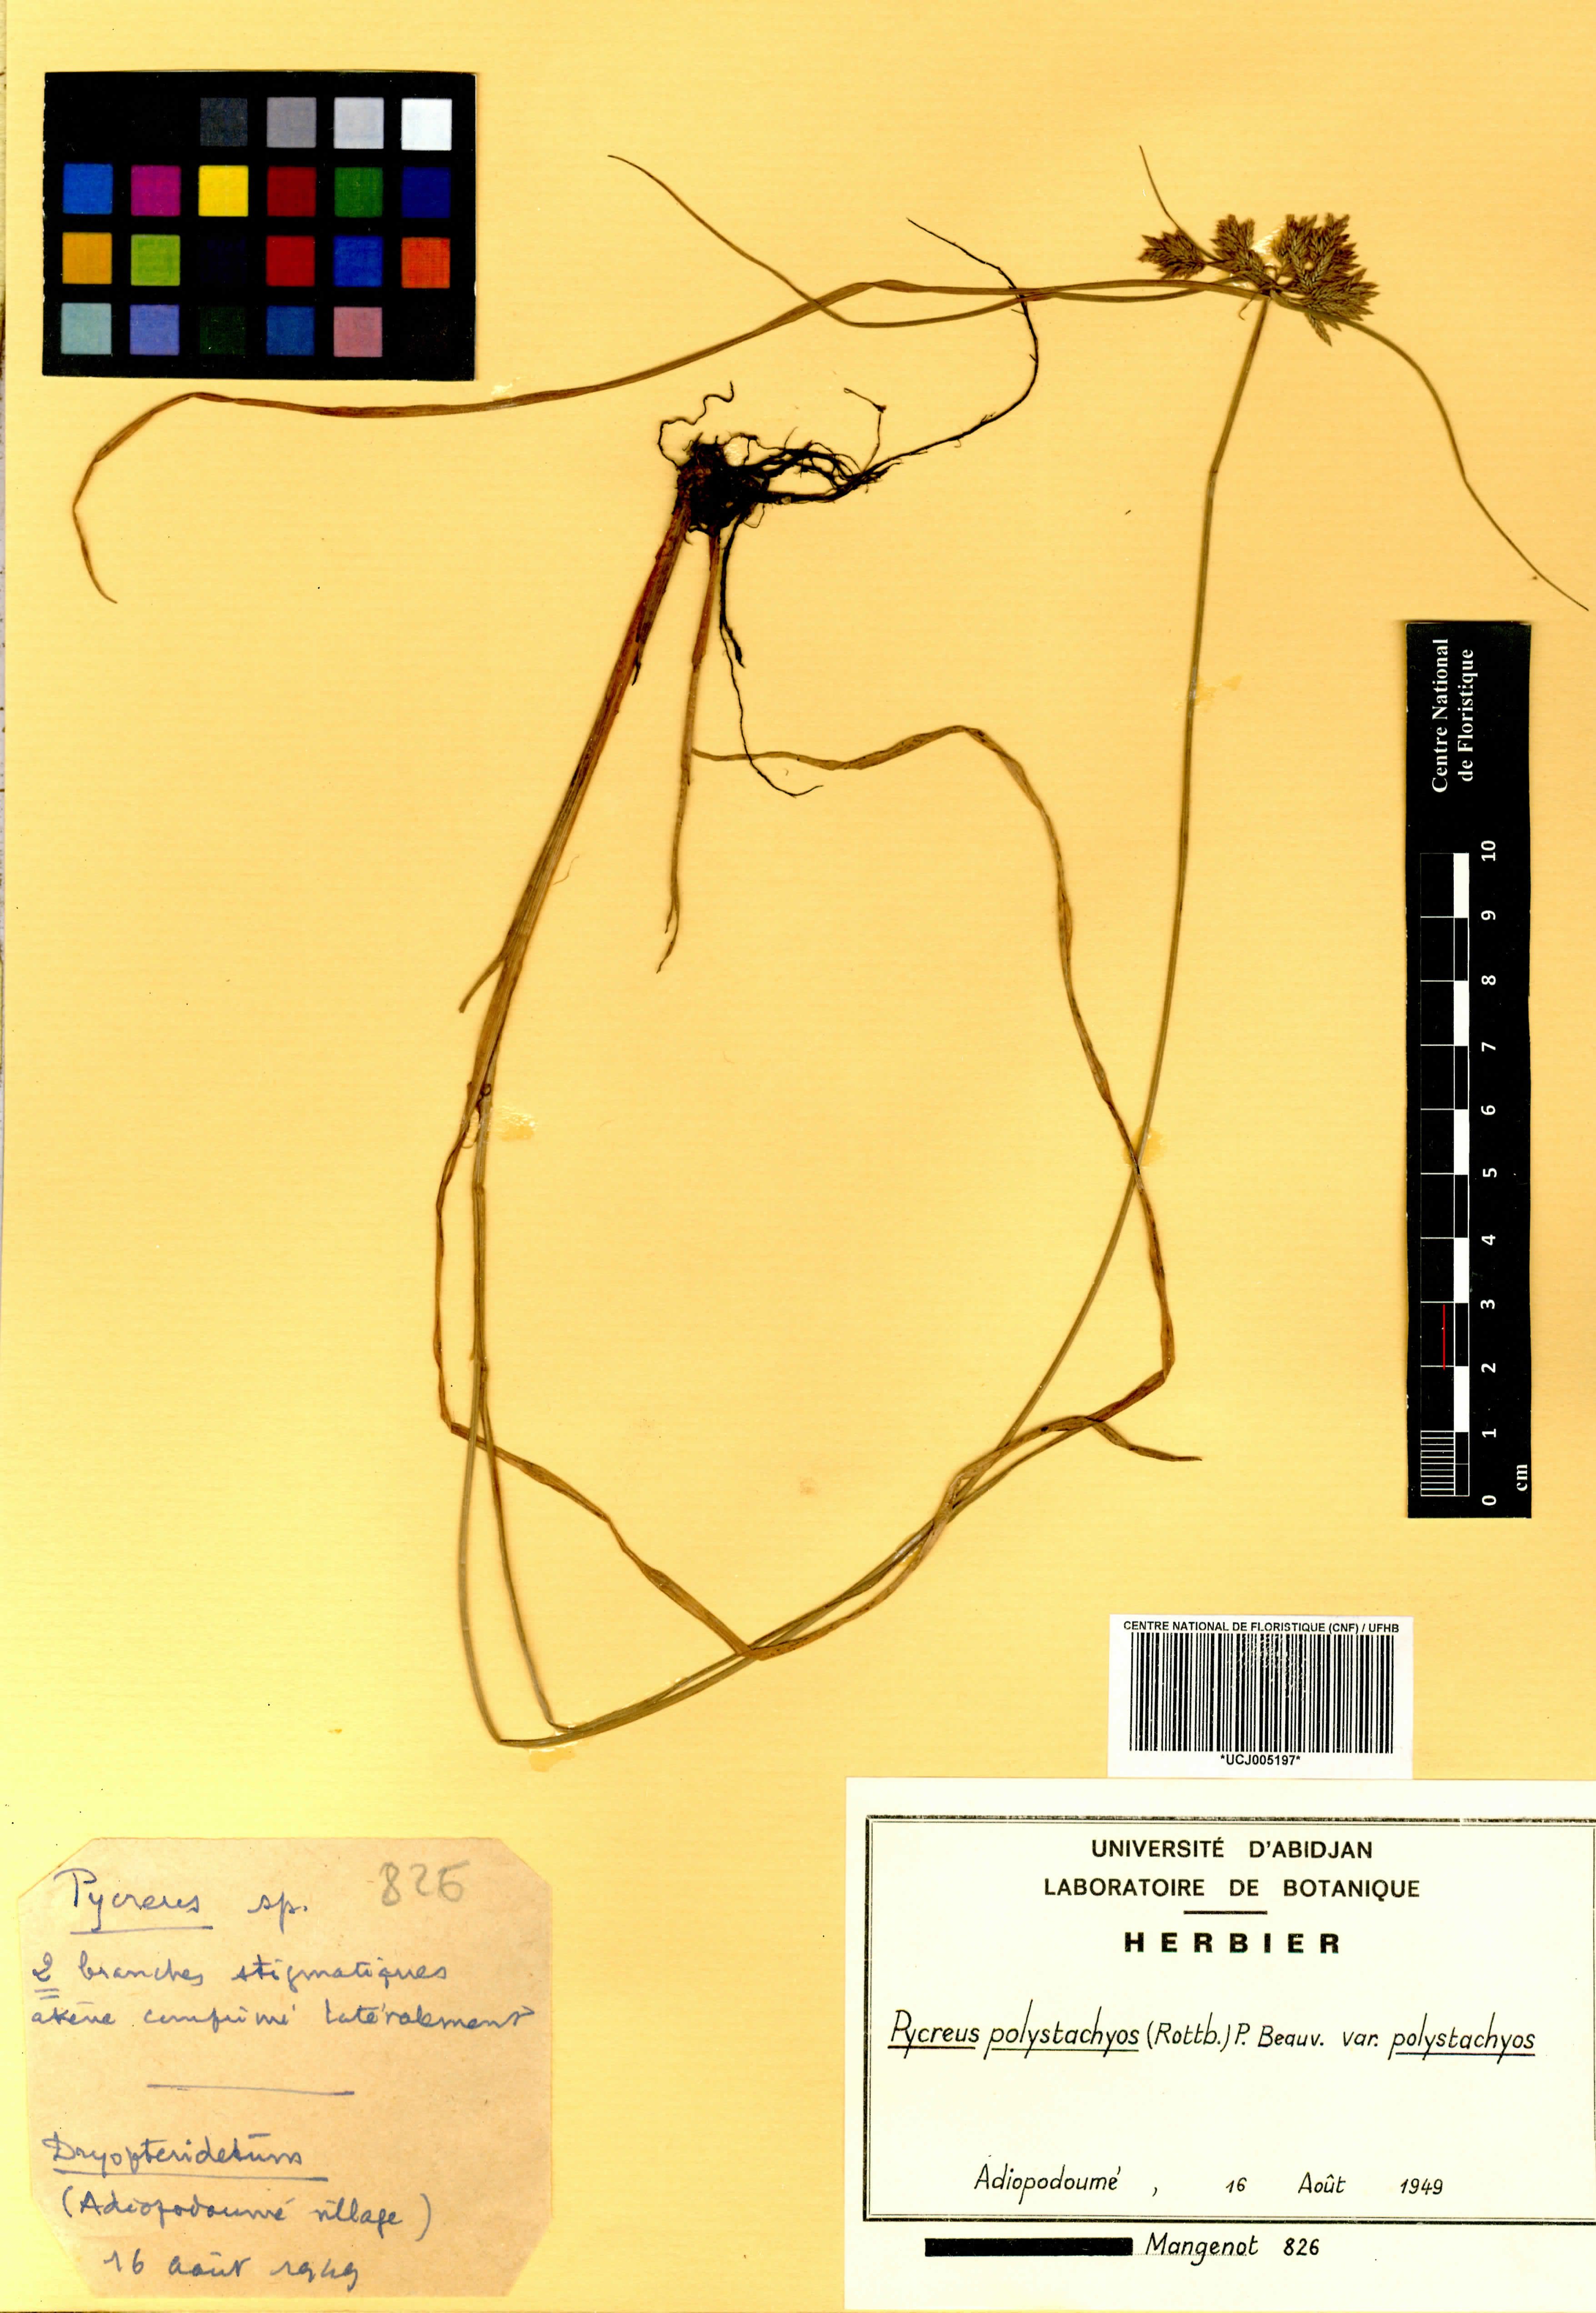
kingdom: Plantae
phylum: Tracheophyta
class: Liliopsida
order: Poales
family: Cyperaceae
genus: Cyperus
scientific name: Cyperus polystachyos
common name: Bunchy flat sedge
